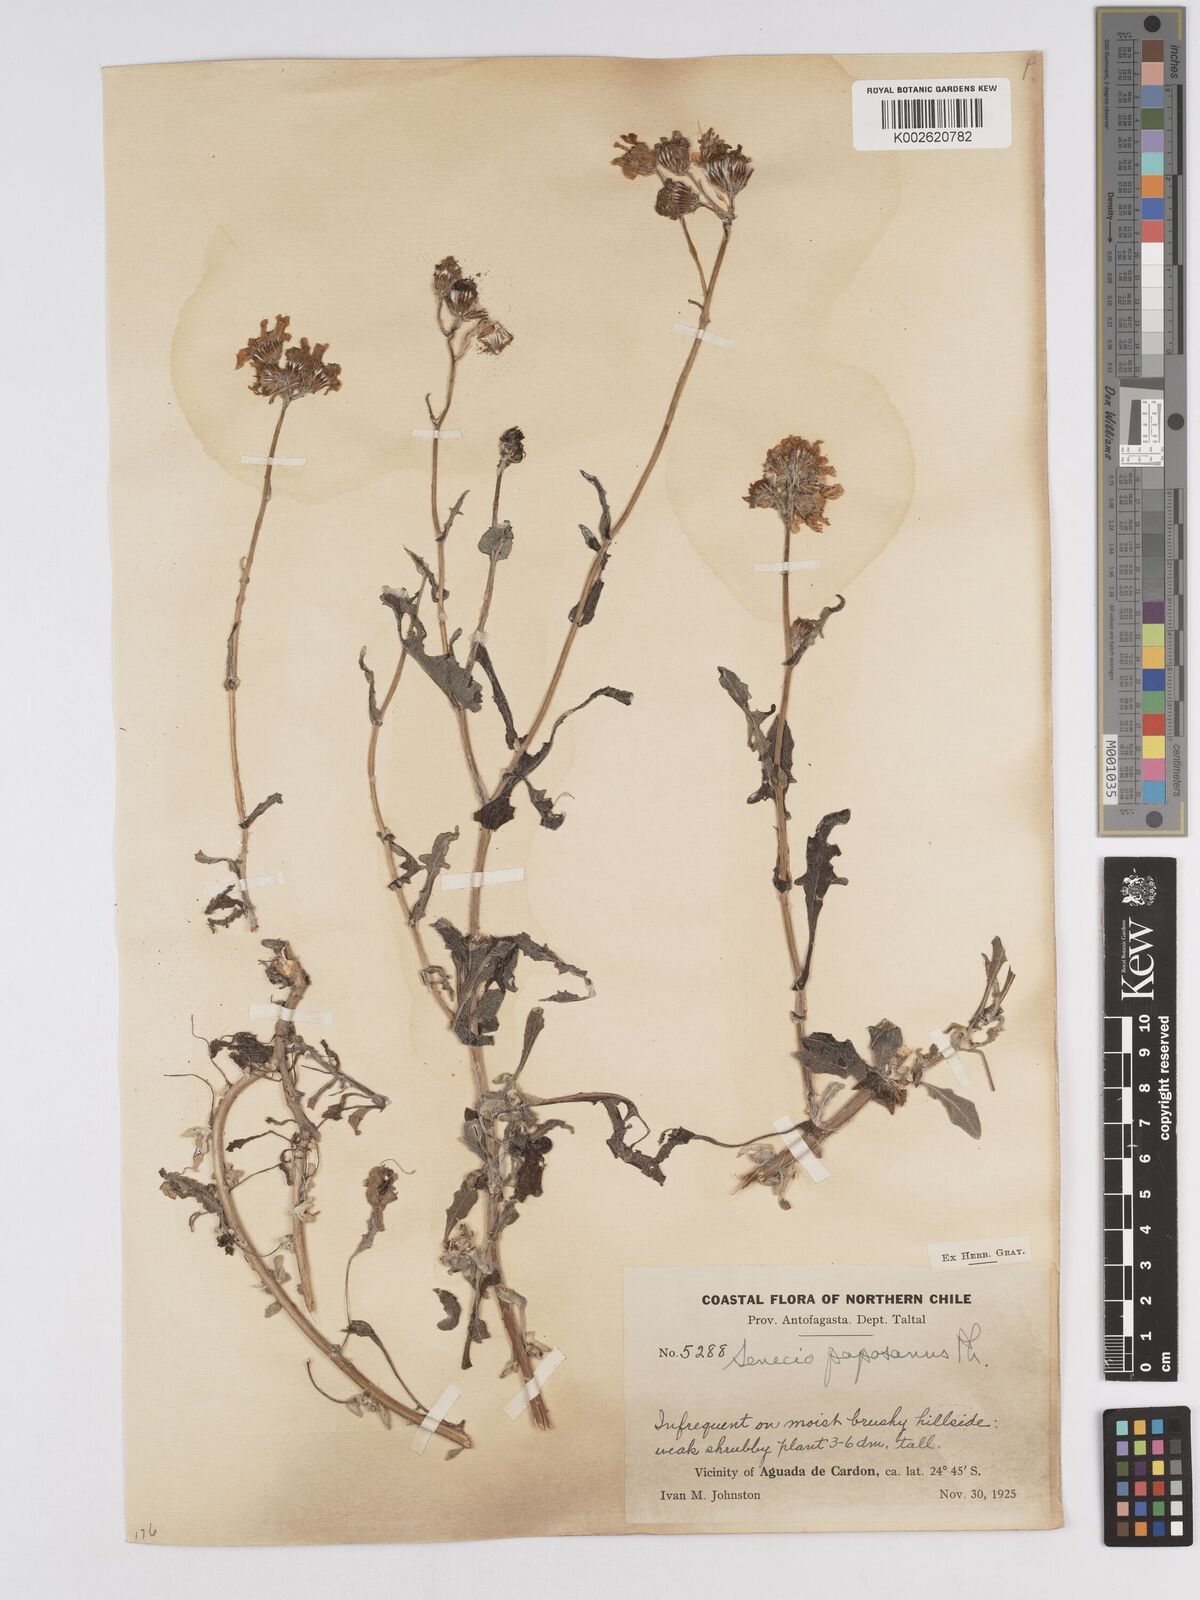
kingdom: Plantae
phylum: Tracheophyta
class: Magnoliopsida
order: Asterales
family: Asteraceae
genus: Senecio
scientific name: Senecio philippicus
